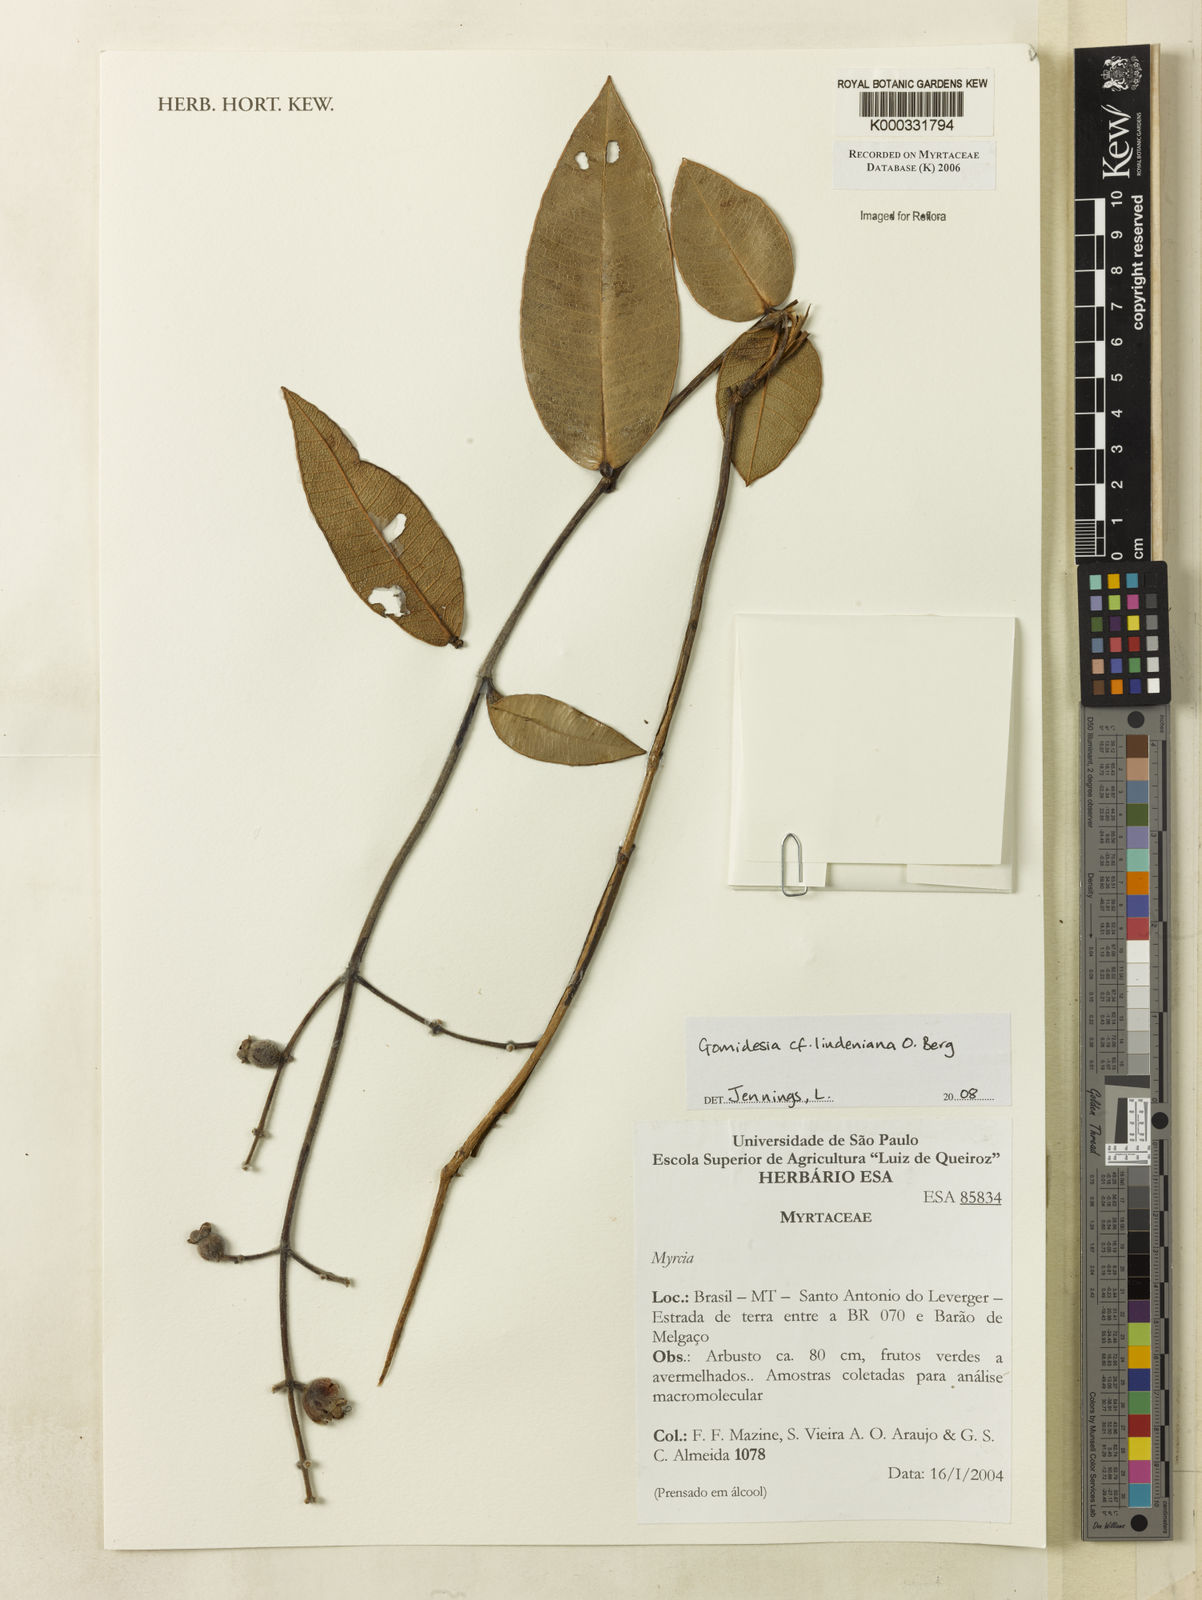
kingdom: Plantae
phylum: Tracheophyta
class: Magnoliopsida
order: Myrtales
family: Myrtaceae
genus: Myrcia
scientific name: Myrcia
